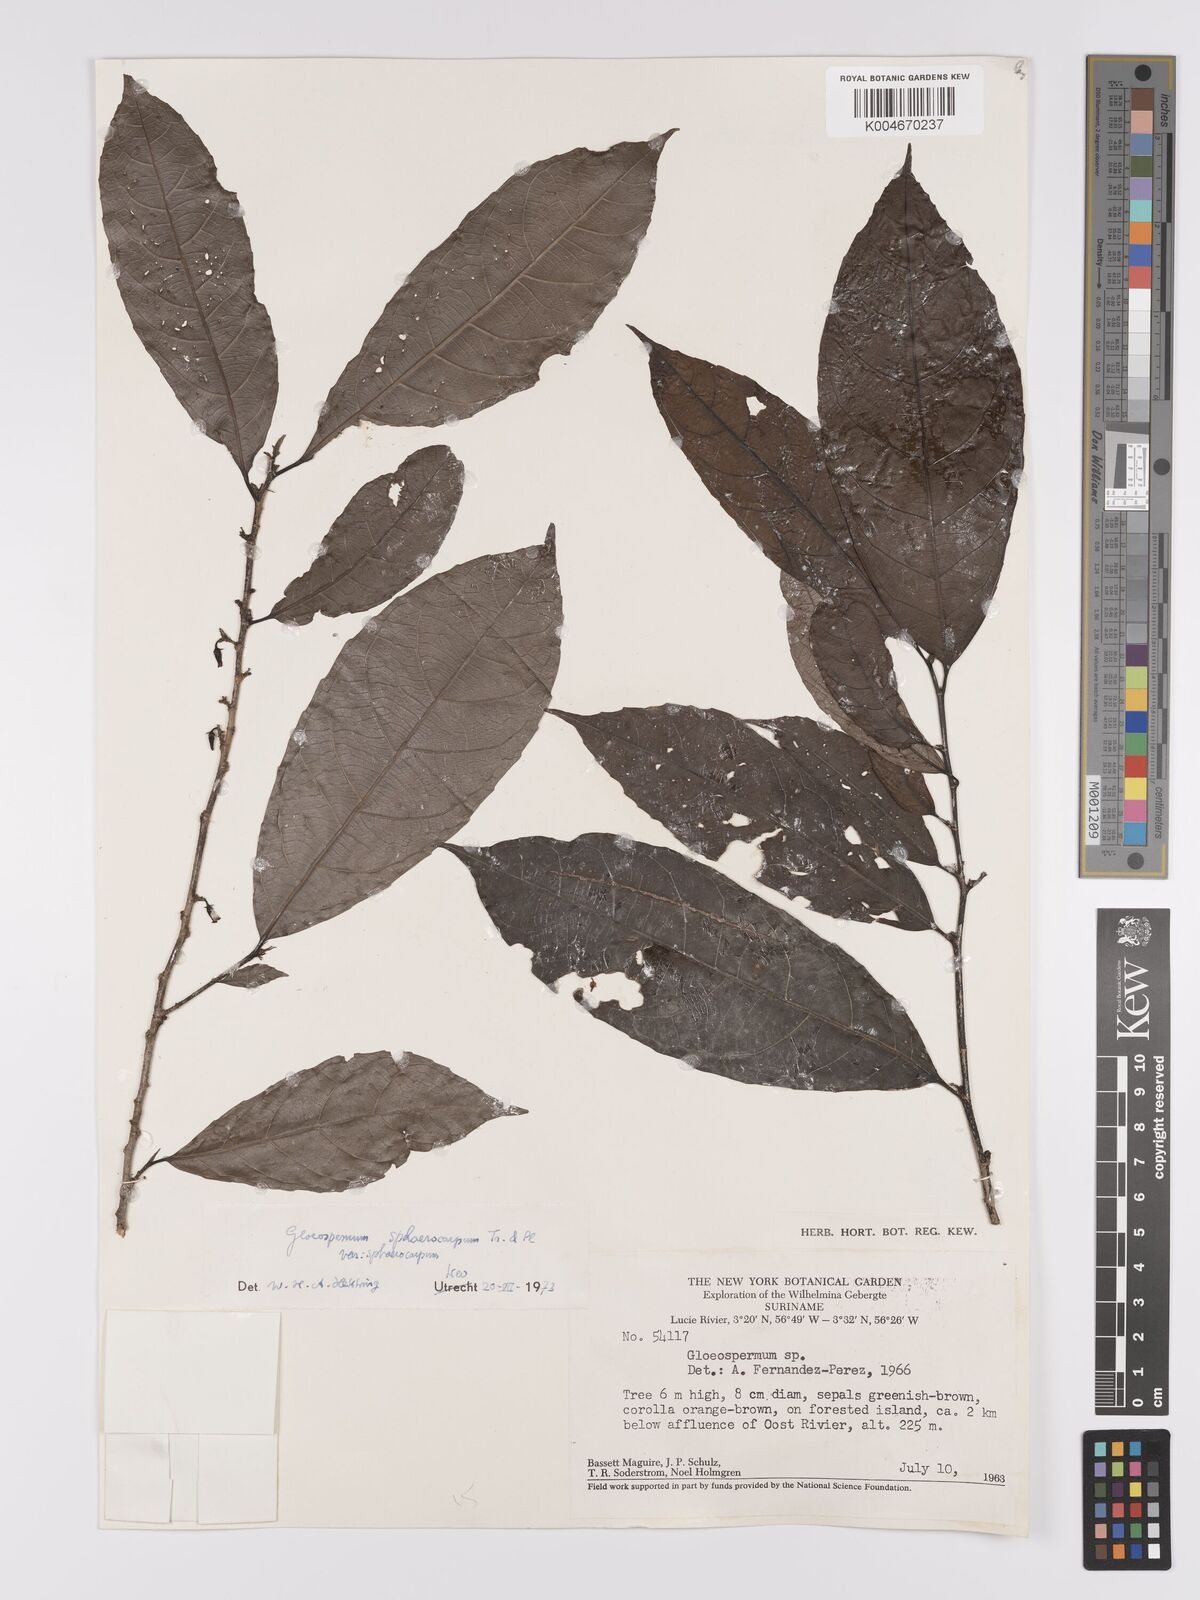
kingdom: Plantae
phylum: Tracheophyta
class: Magnoliopsida
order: Malpighiales
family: Violaceae
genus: Gloeospermum
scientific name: Gloeospermum sphaerocarpum
